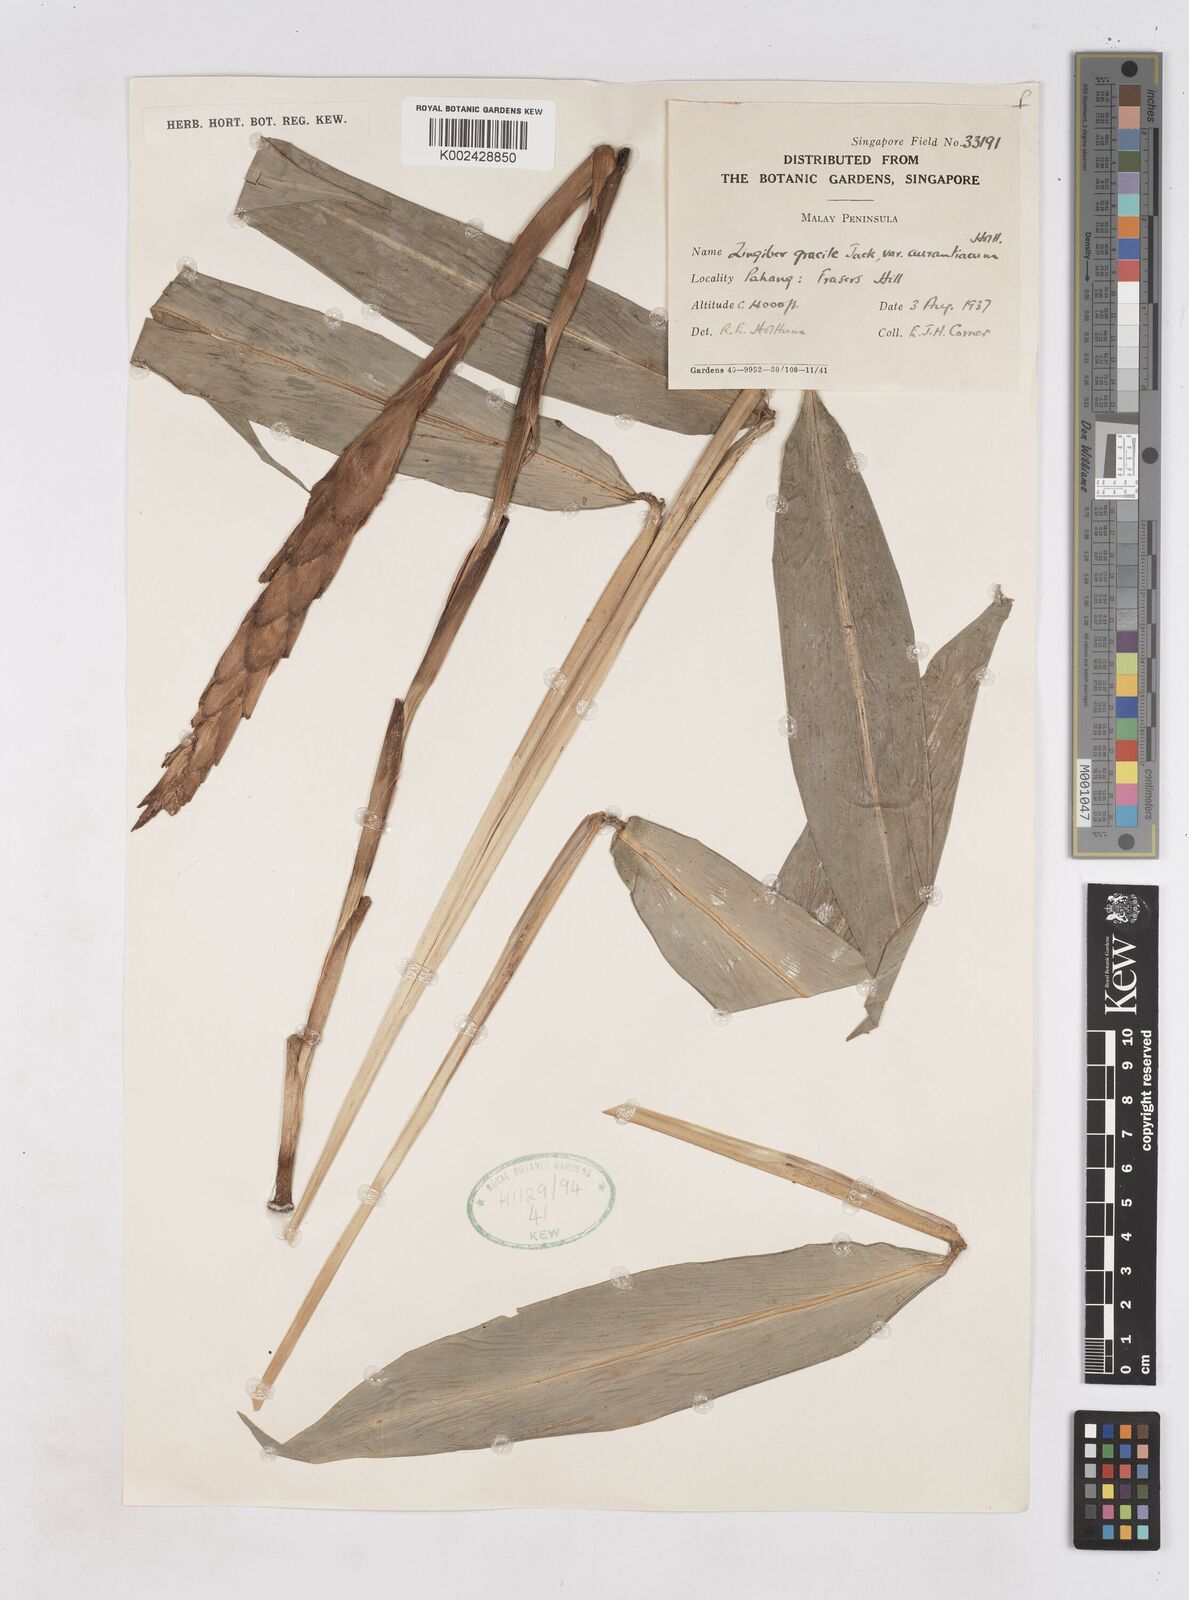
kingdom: Plantae
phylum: Tracheophyta
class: Liliopsida
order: Zingiberales
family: Zingiberaceae
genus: Zingiber
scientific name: Zingiber gracile
